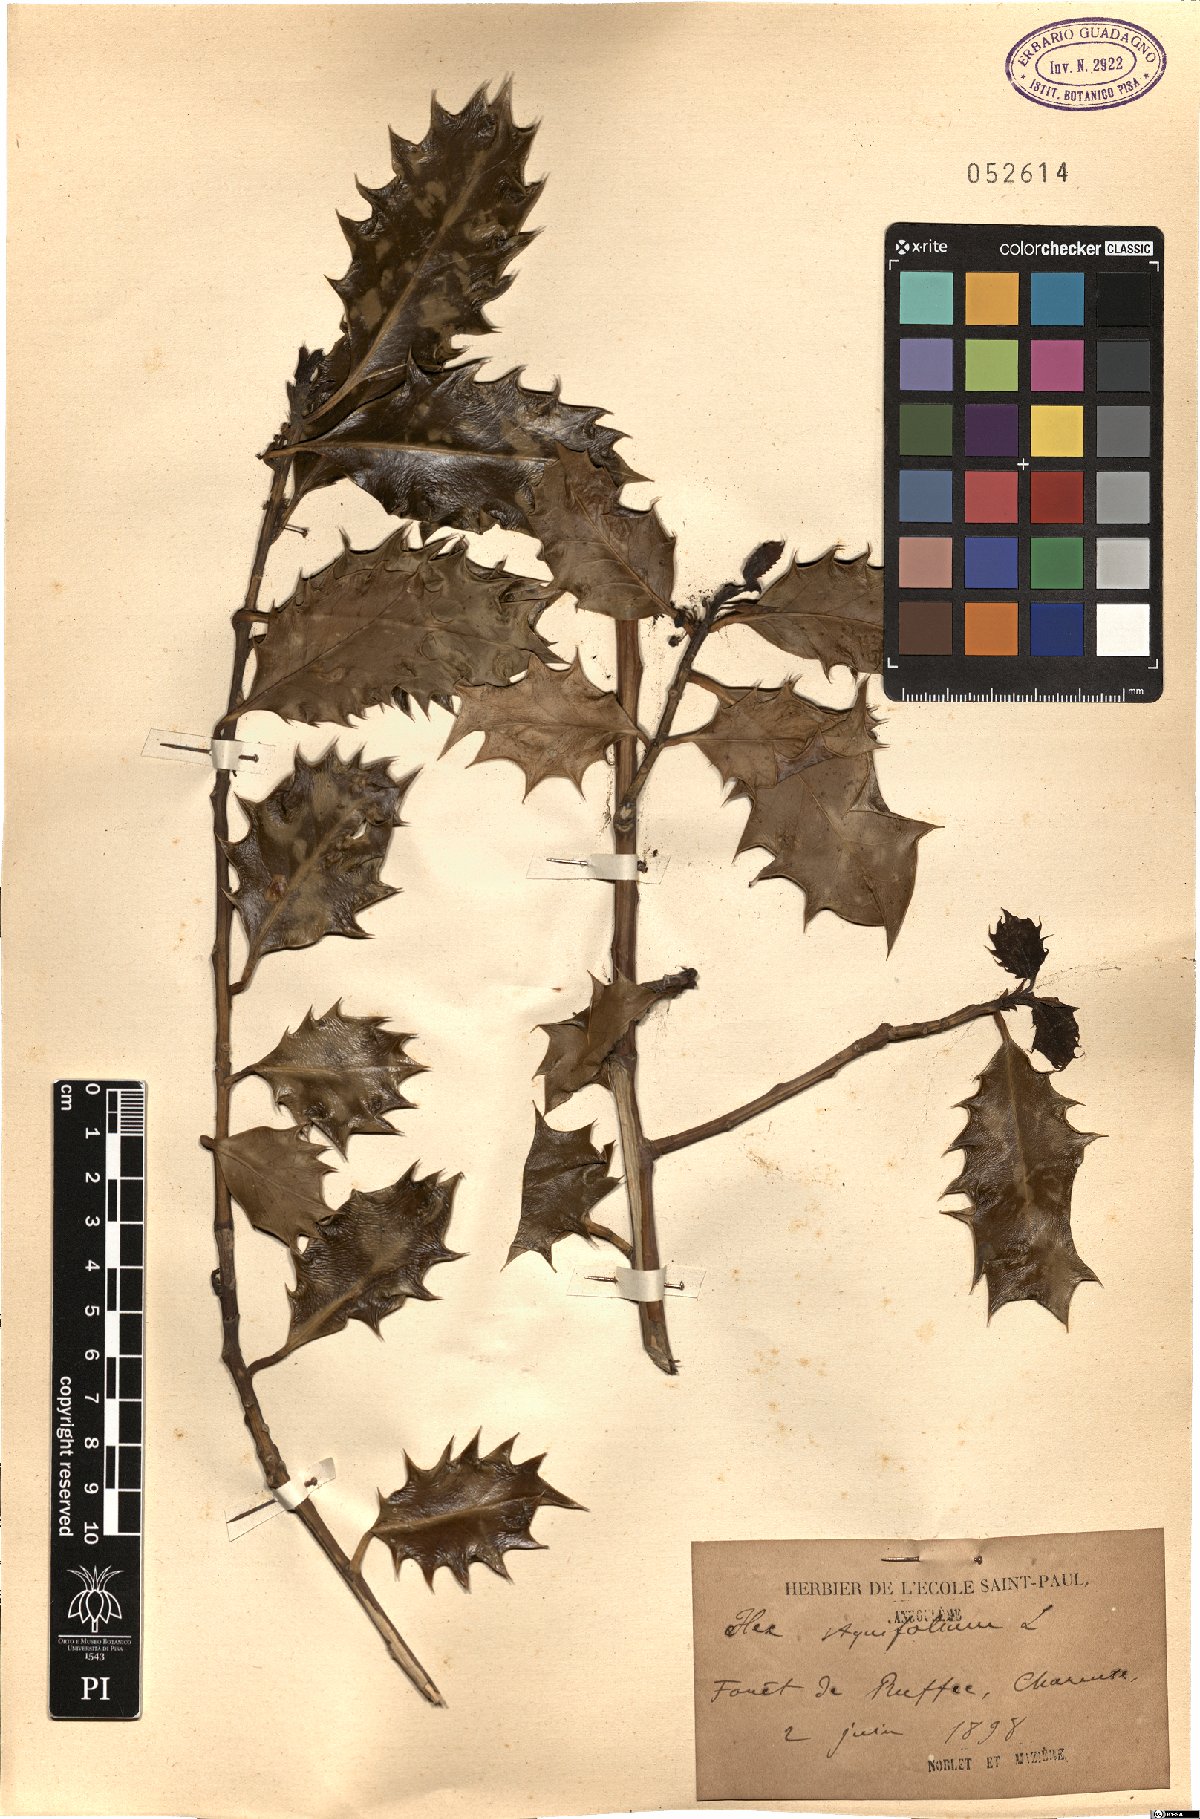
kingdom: Plantae
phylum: Tracheophyta
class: Magnoliopsida
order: Aquifoliales
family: Aquifoliaceae
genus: Ilex
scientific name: Ilex aquifolium
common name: English holly
